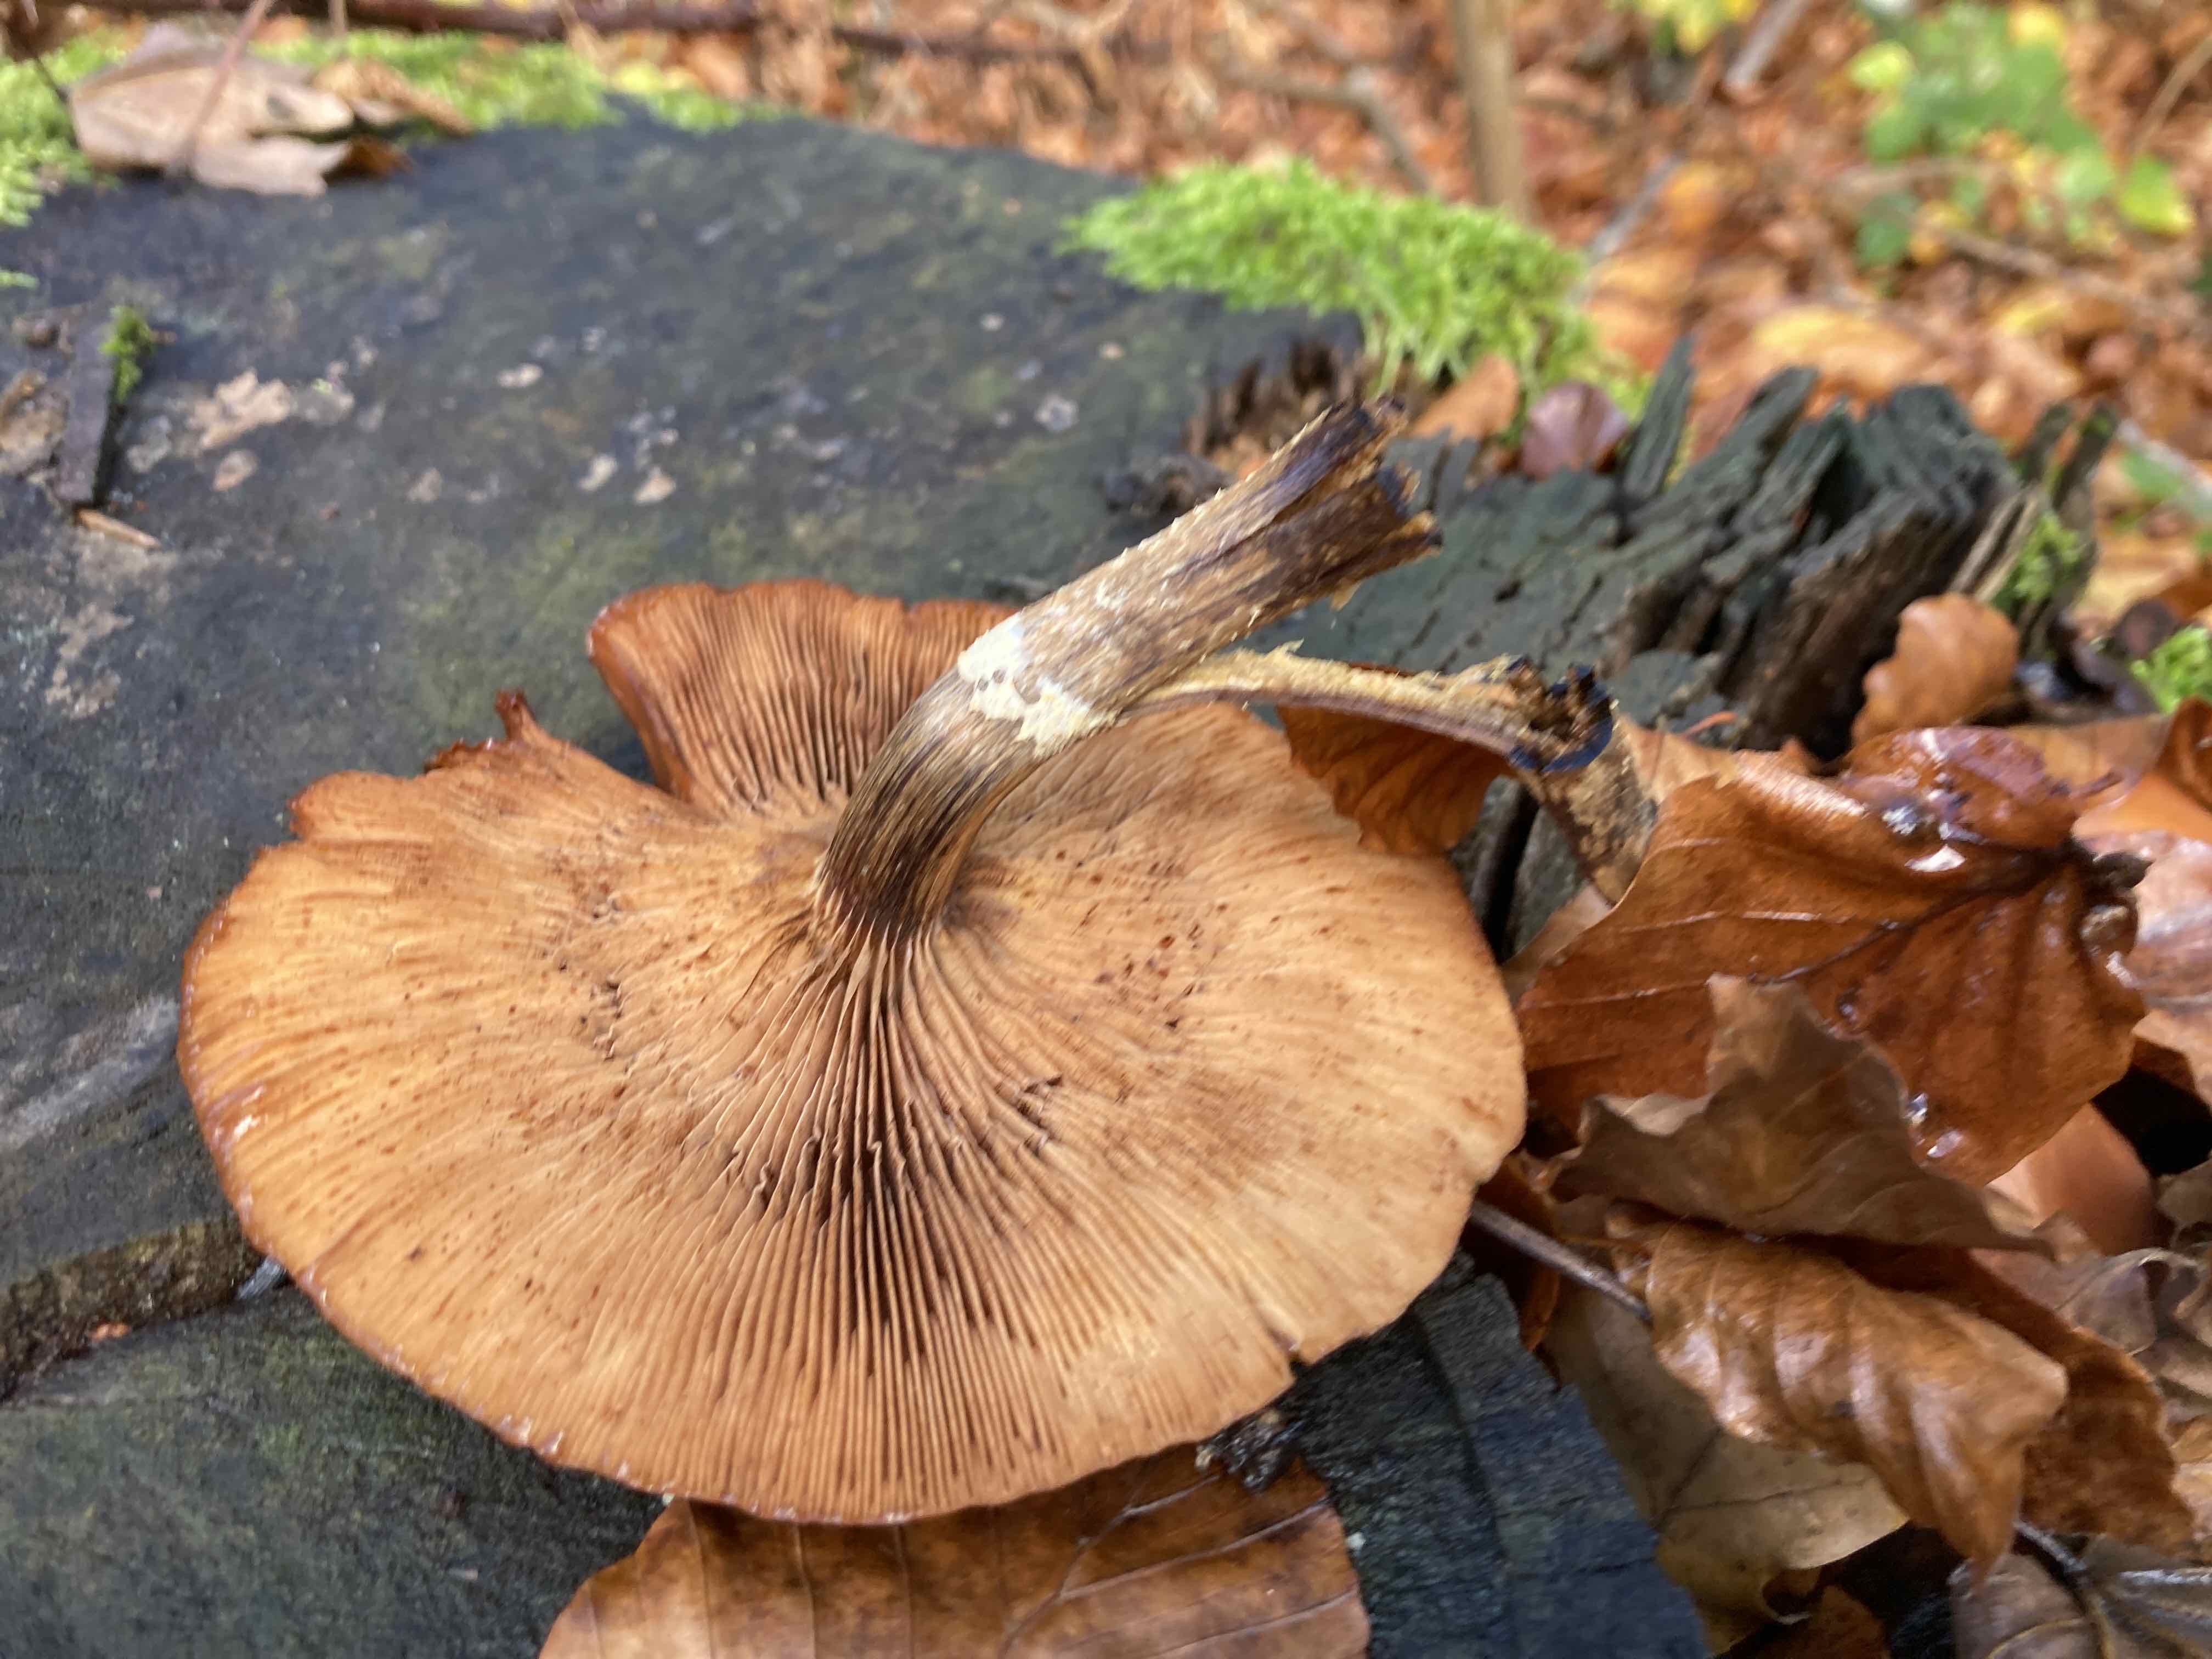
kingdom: Fungi
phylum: Basidiomycota
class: Agaricomycetes
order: Agaricales
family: Strophariaceae
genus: Kuehneromyces
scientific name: Kuehneromyces mutabilis
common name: foranderlig skælhat
